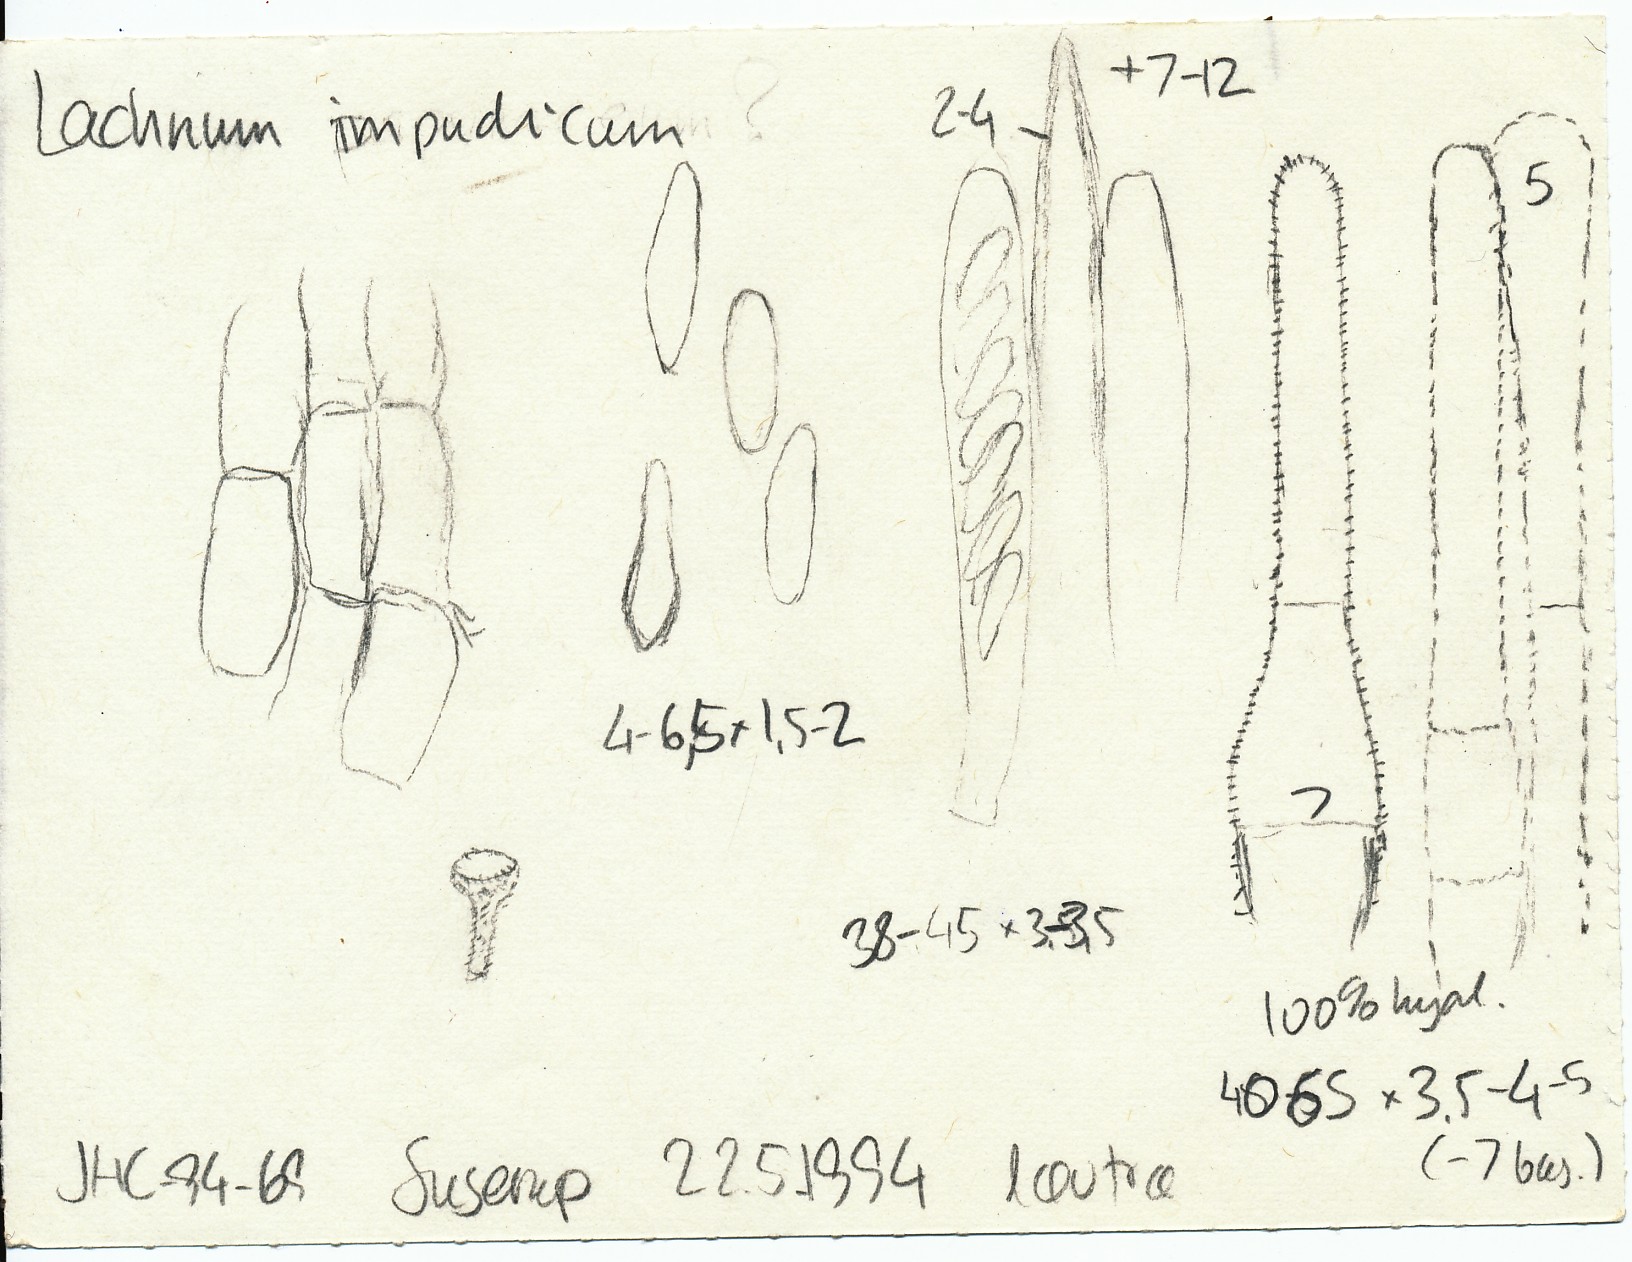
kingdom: Fungi
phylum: Ascomycota
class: Leotiomycetes
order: Helotiales
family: Lachnaceae
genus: Lachnum
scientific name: Lachnum impudicum
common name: vinter-frynseskive
